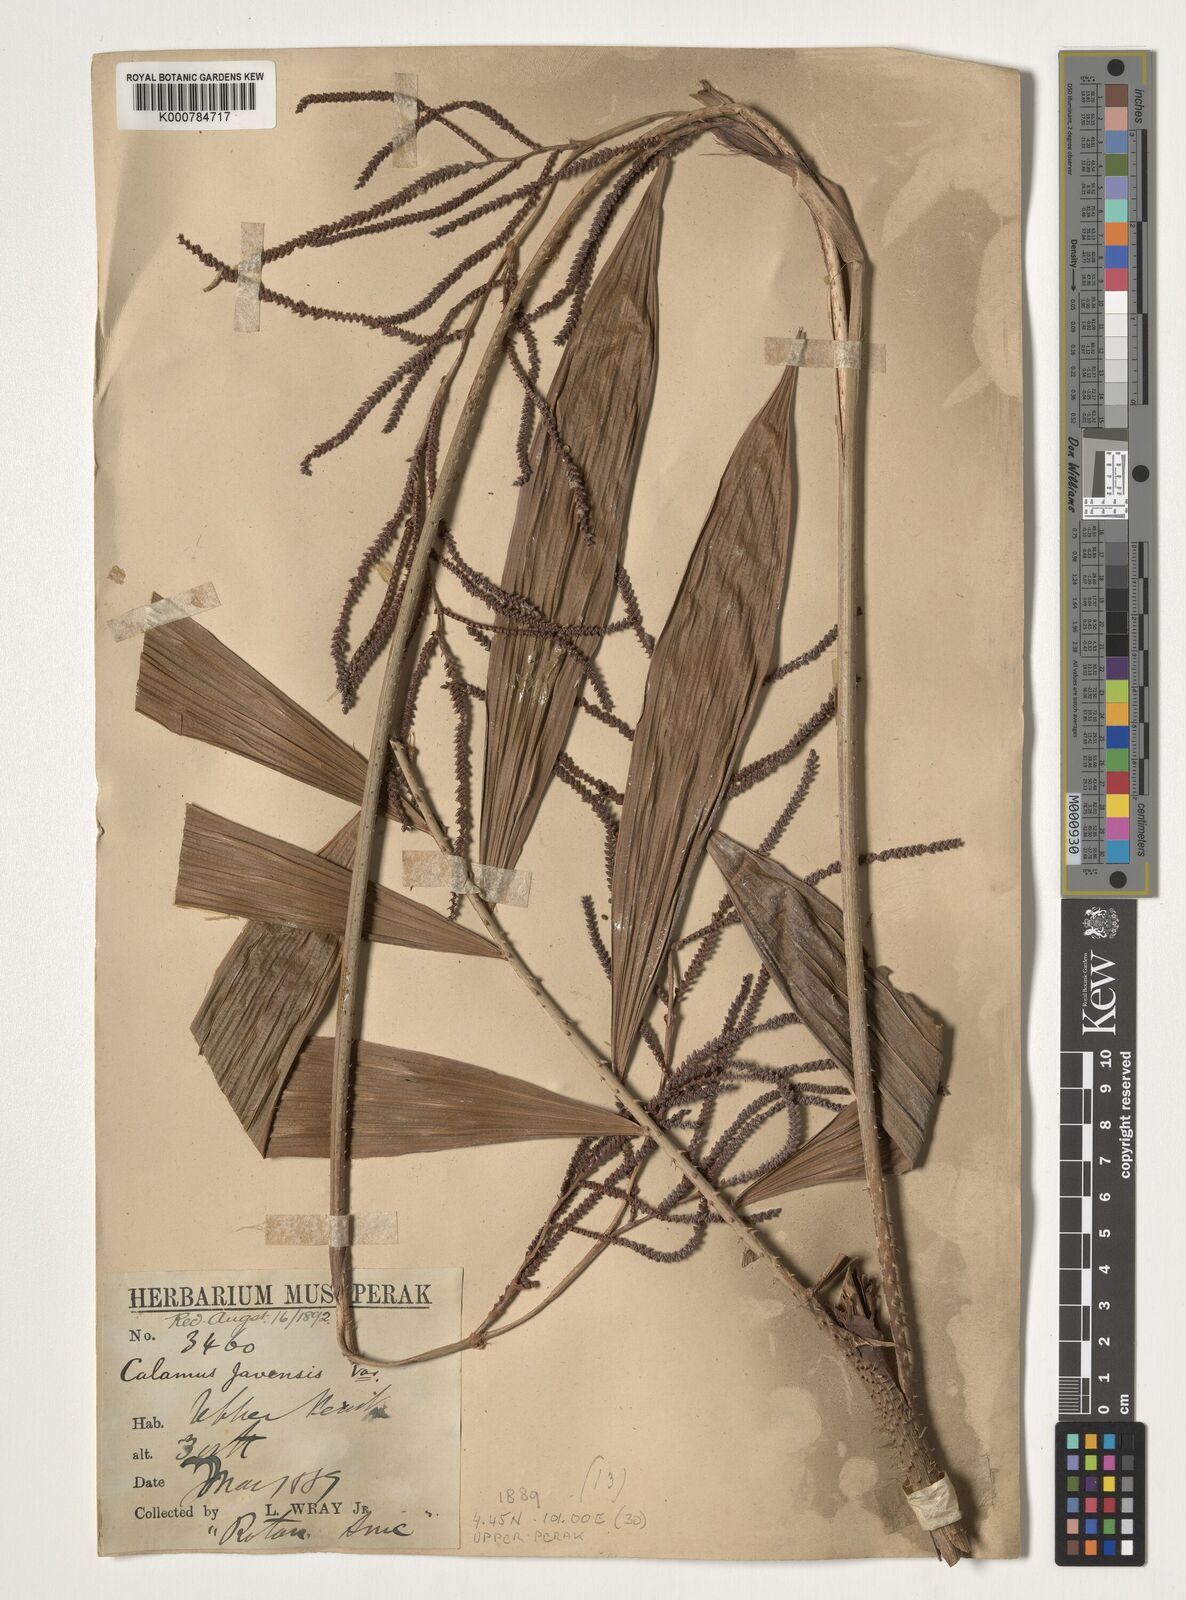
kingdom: Plantae
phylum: Tracheophyta
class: Liliopsida
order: Arecales
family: Arecaceae
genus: Calamus
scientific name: Calamus javensis
